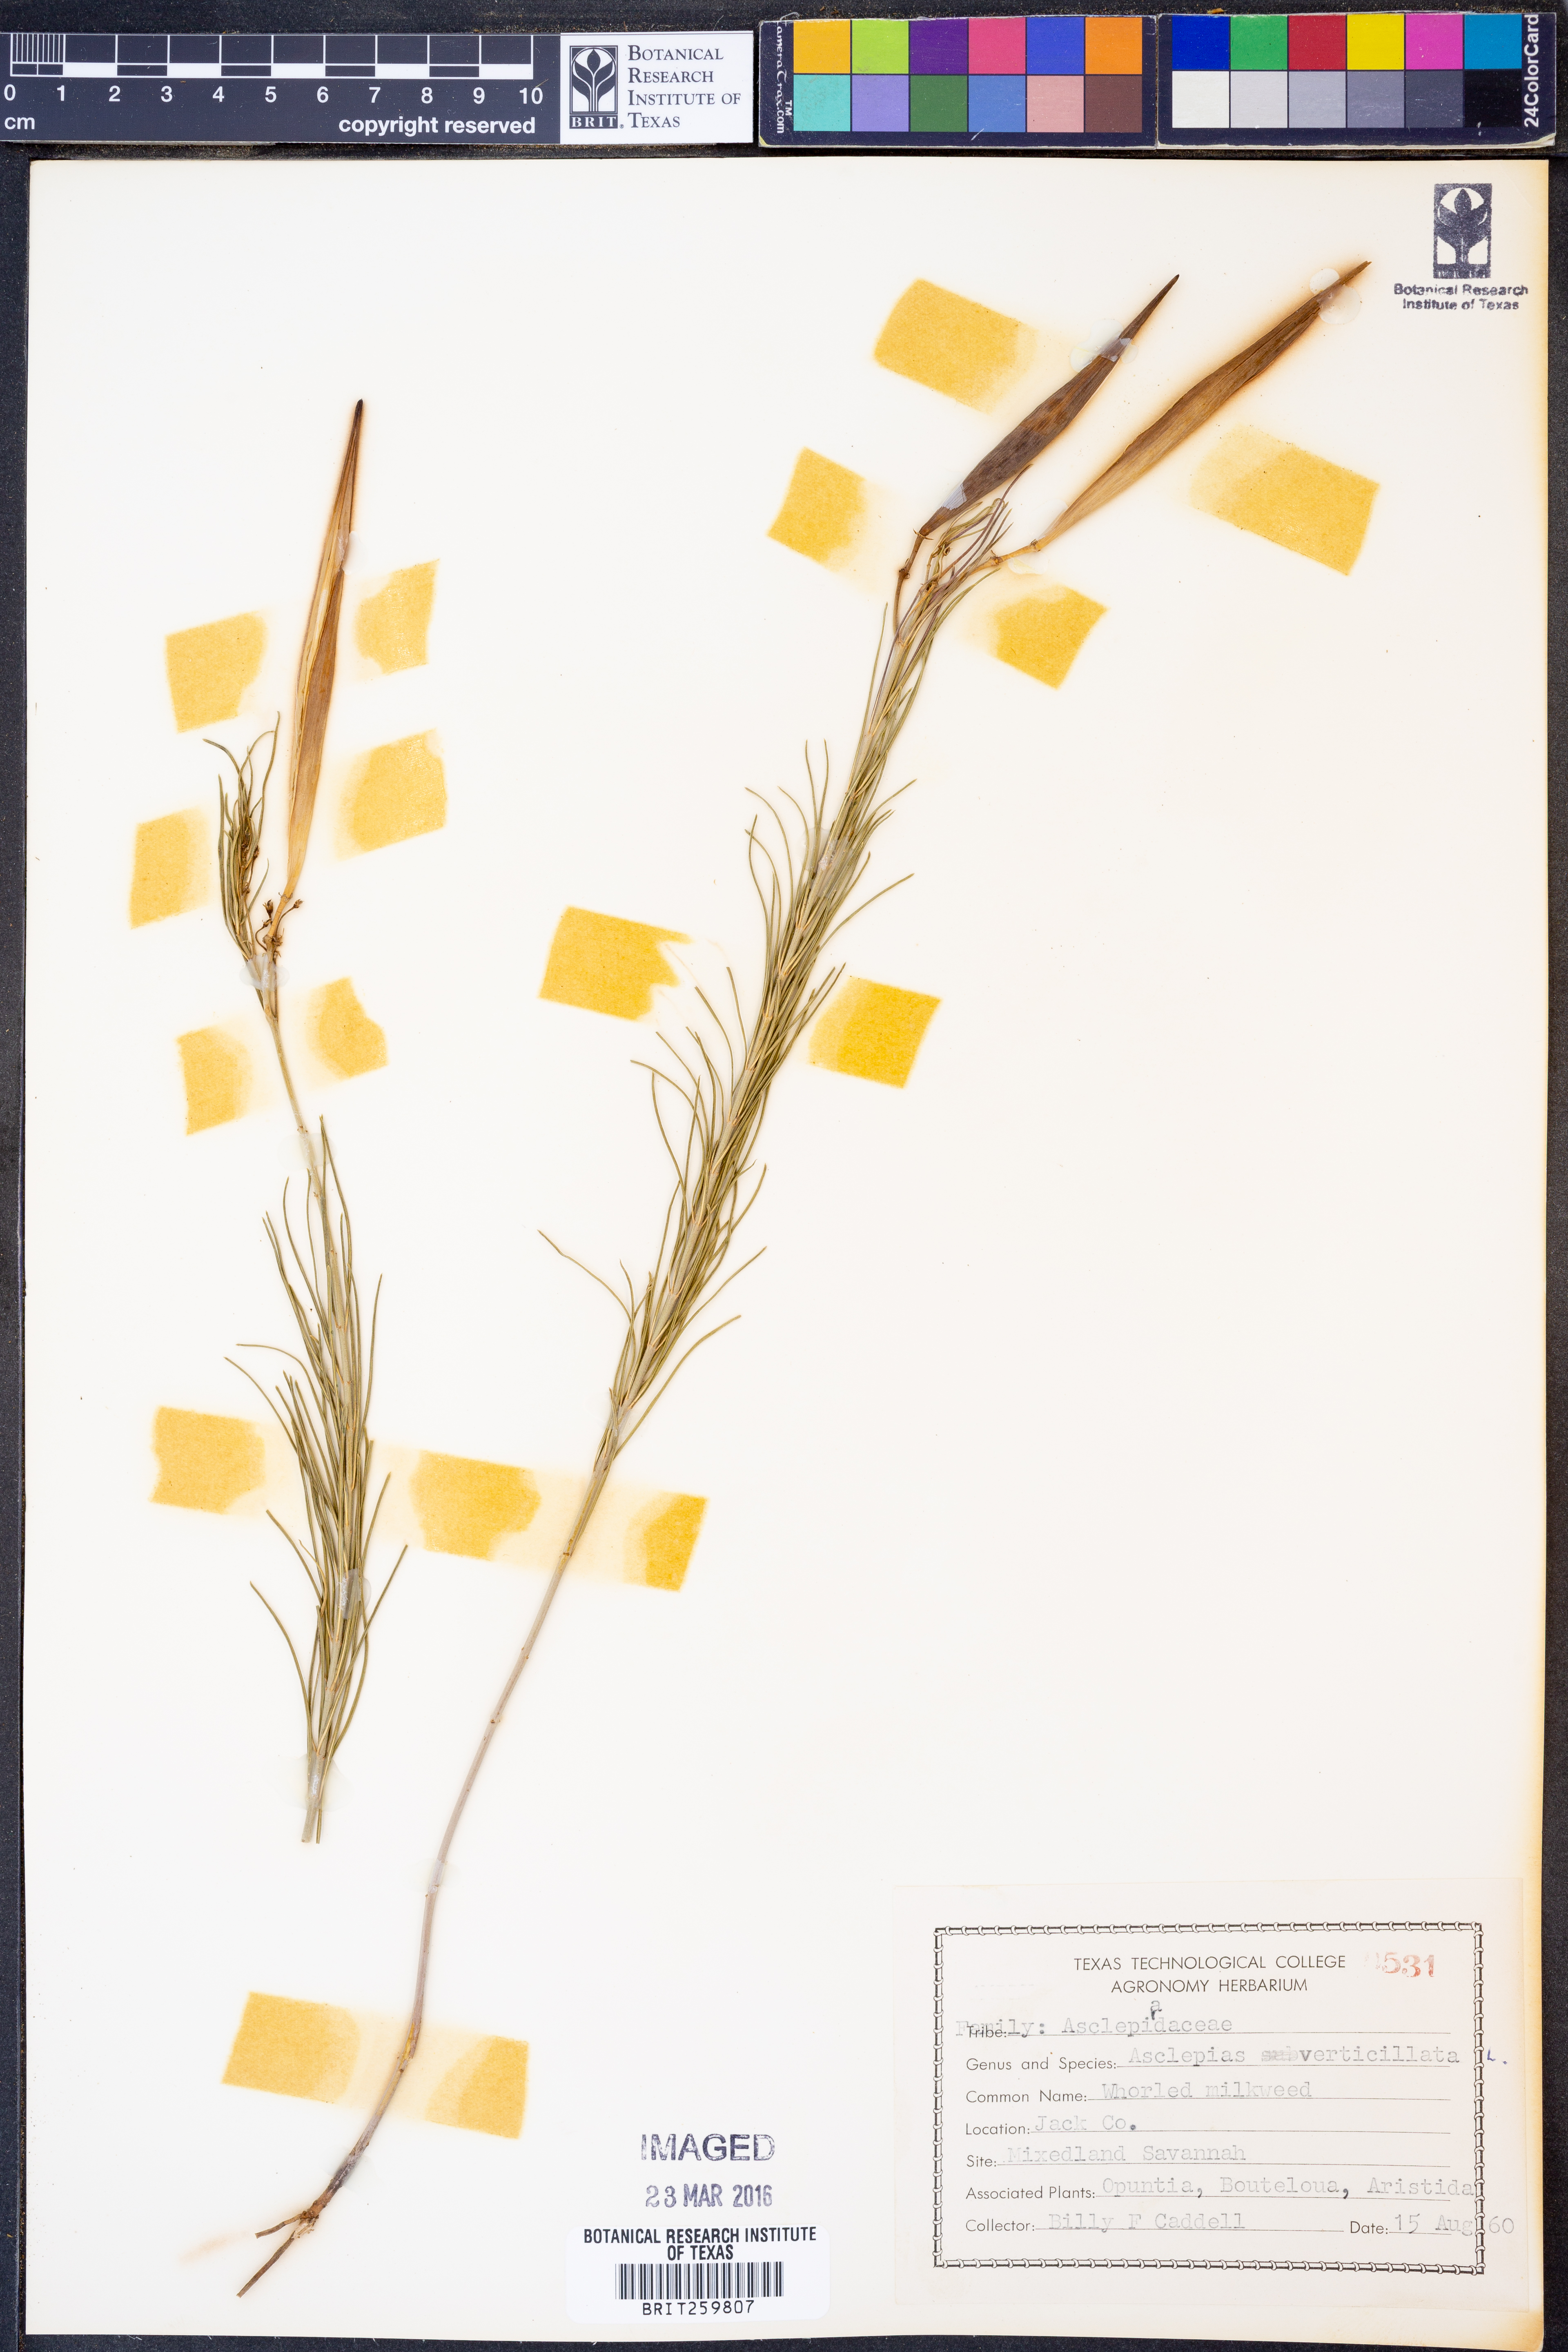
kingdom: Plantae
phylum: Tracheophyta
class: Magnoliopsida
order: Gentianales
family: Apocynaceae
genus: Asclepias
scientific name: Asclepias verticillata
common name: Eastern whorled milkweed
